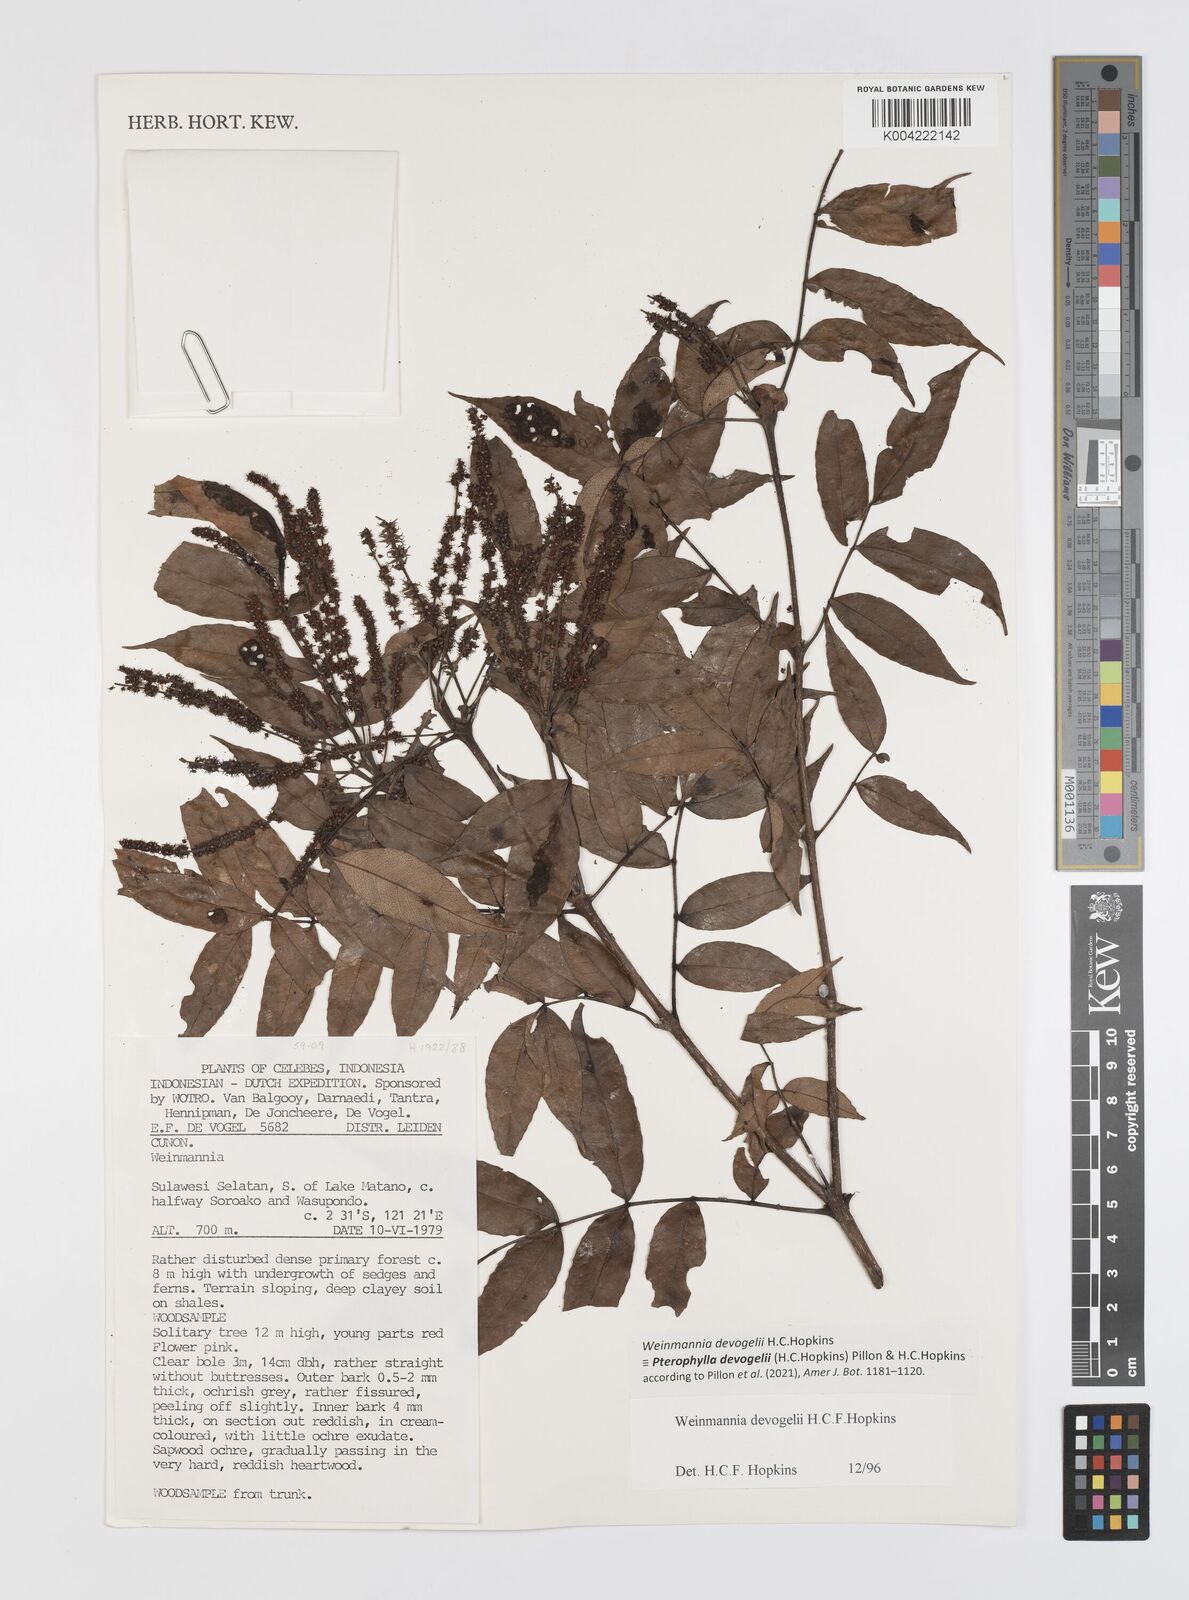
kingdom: Plantae
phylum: Tracheophyta
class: Magnoliopsida
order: Oxalidales
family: Cunoniaceae
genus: Pterophylla
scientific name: Pterophylla devogelii
